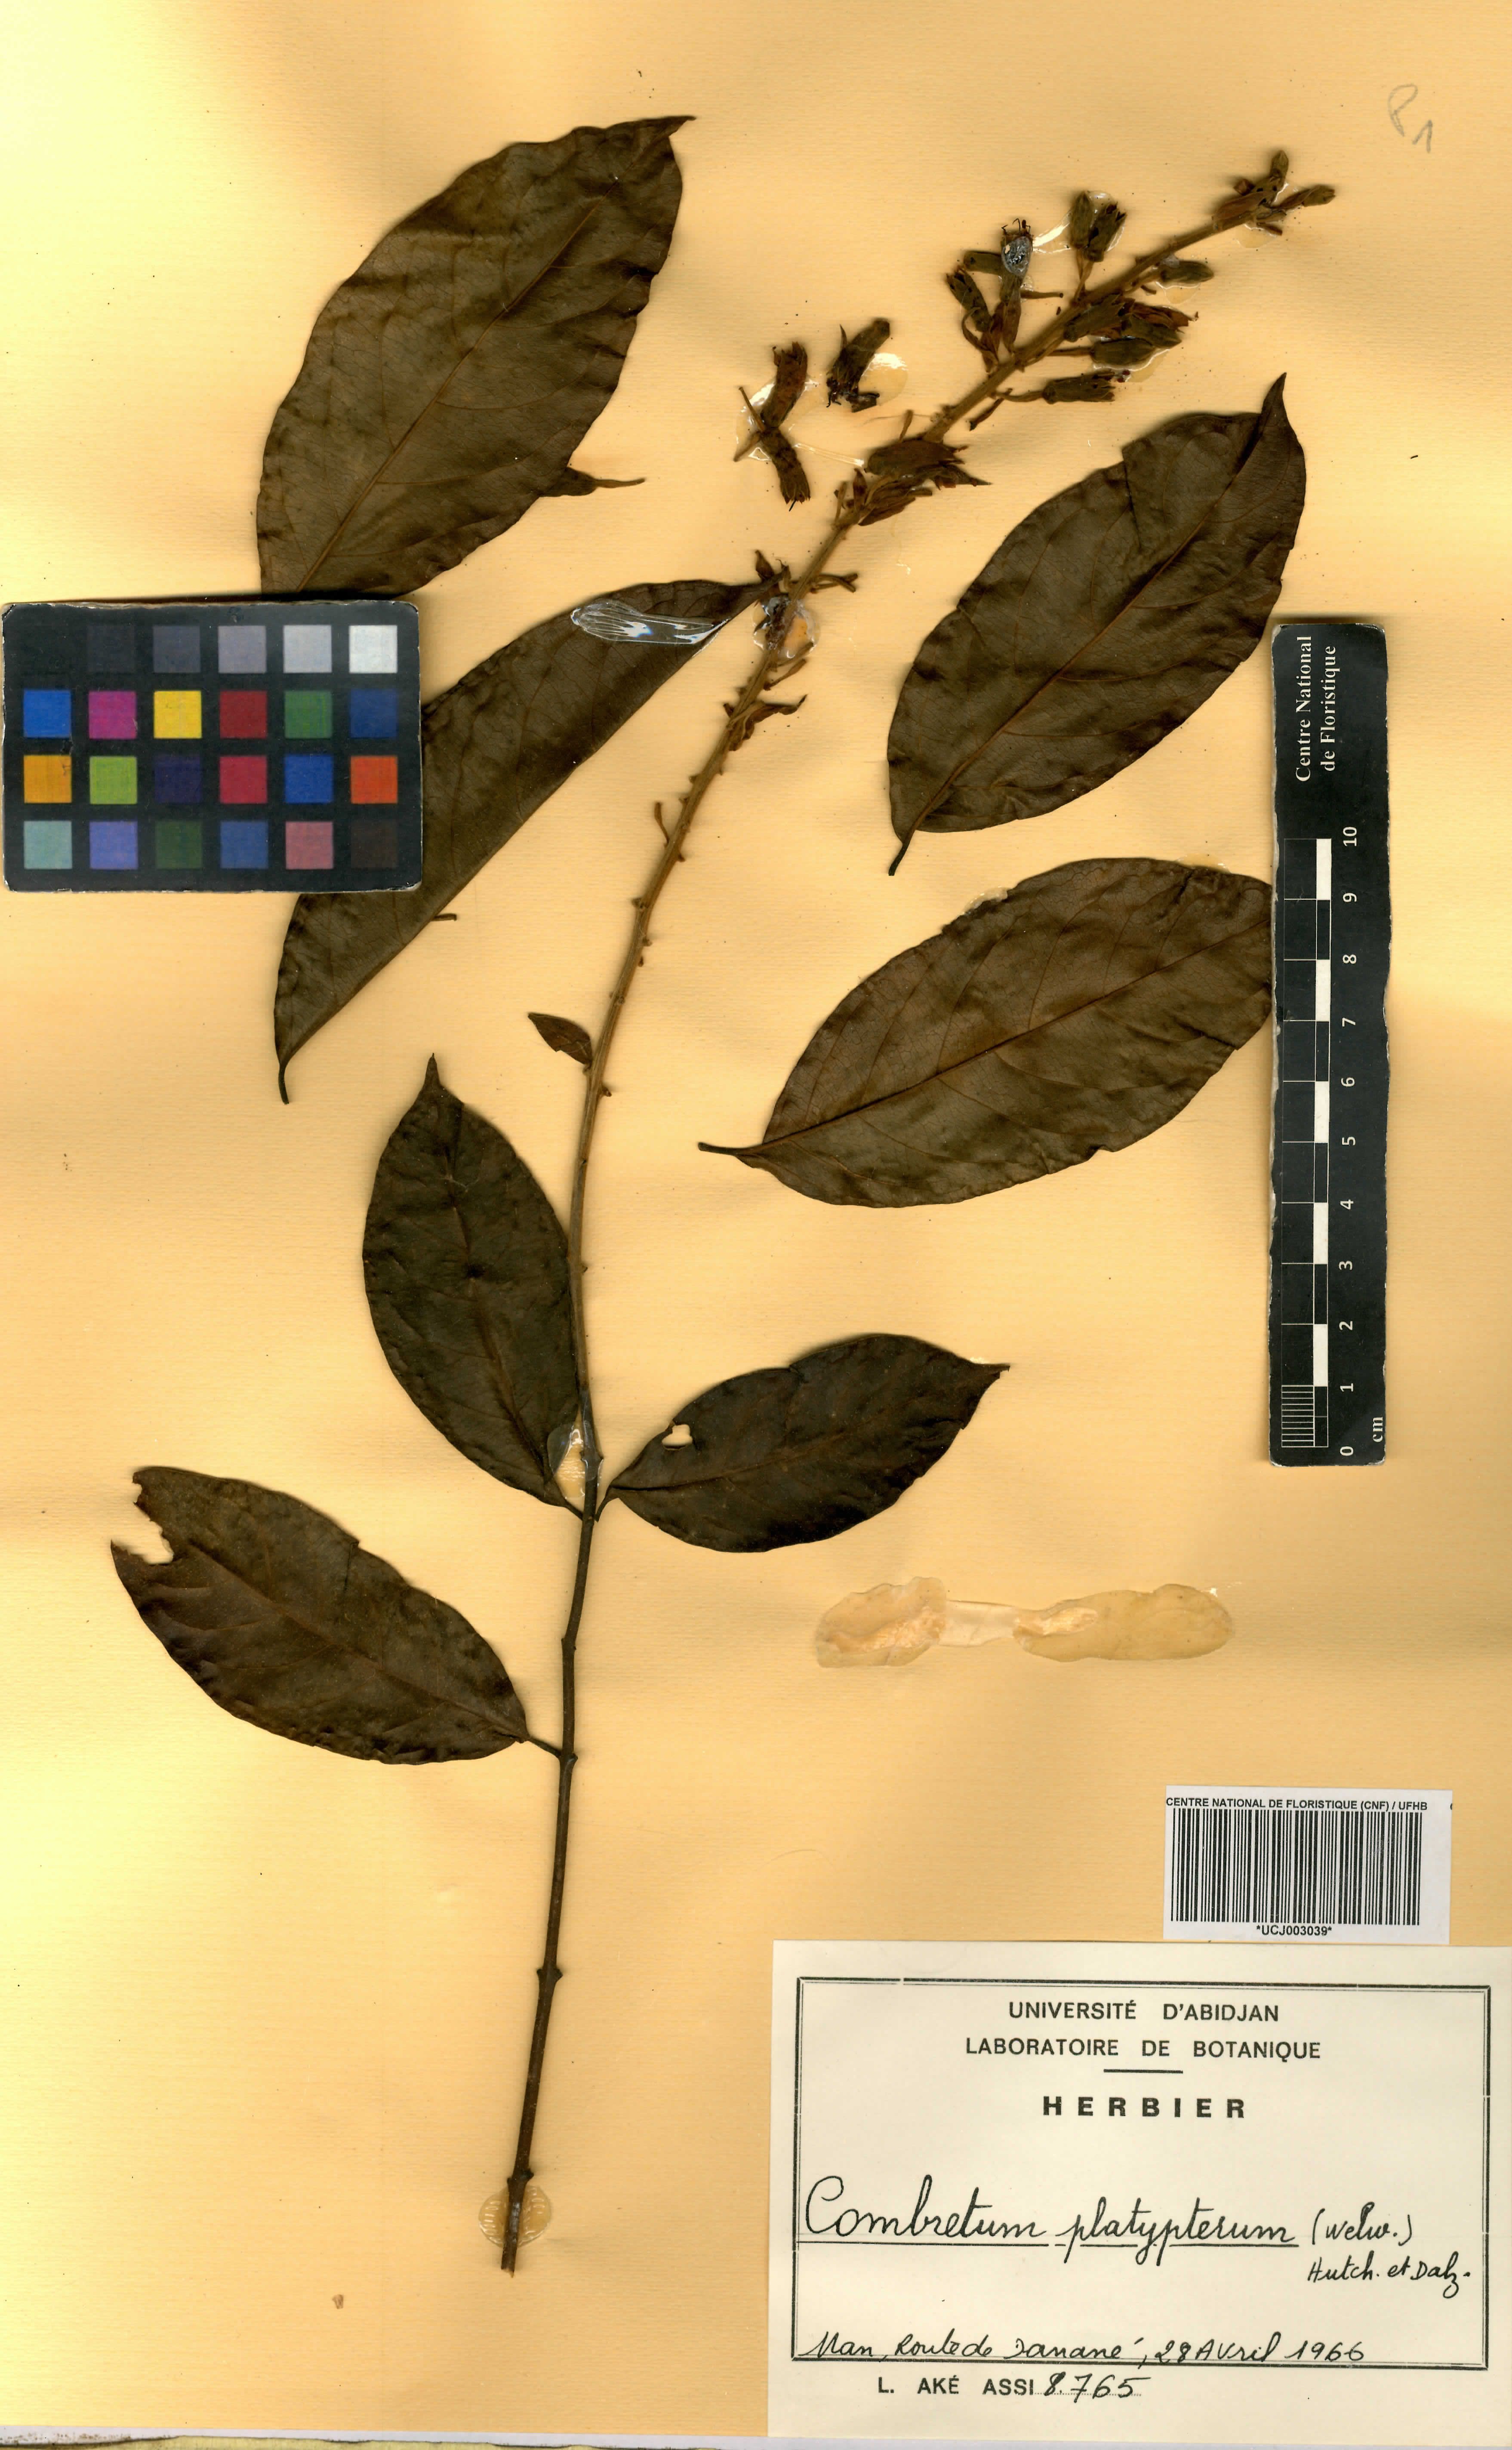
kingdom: Plantae
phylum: Tracheophyta
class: Magnoliopsida
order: Myrtales
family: Combretaceae
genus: Combretum
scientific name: Combretum platypterum
